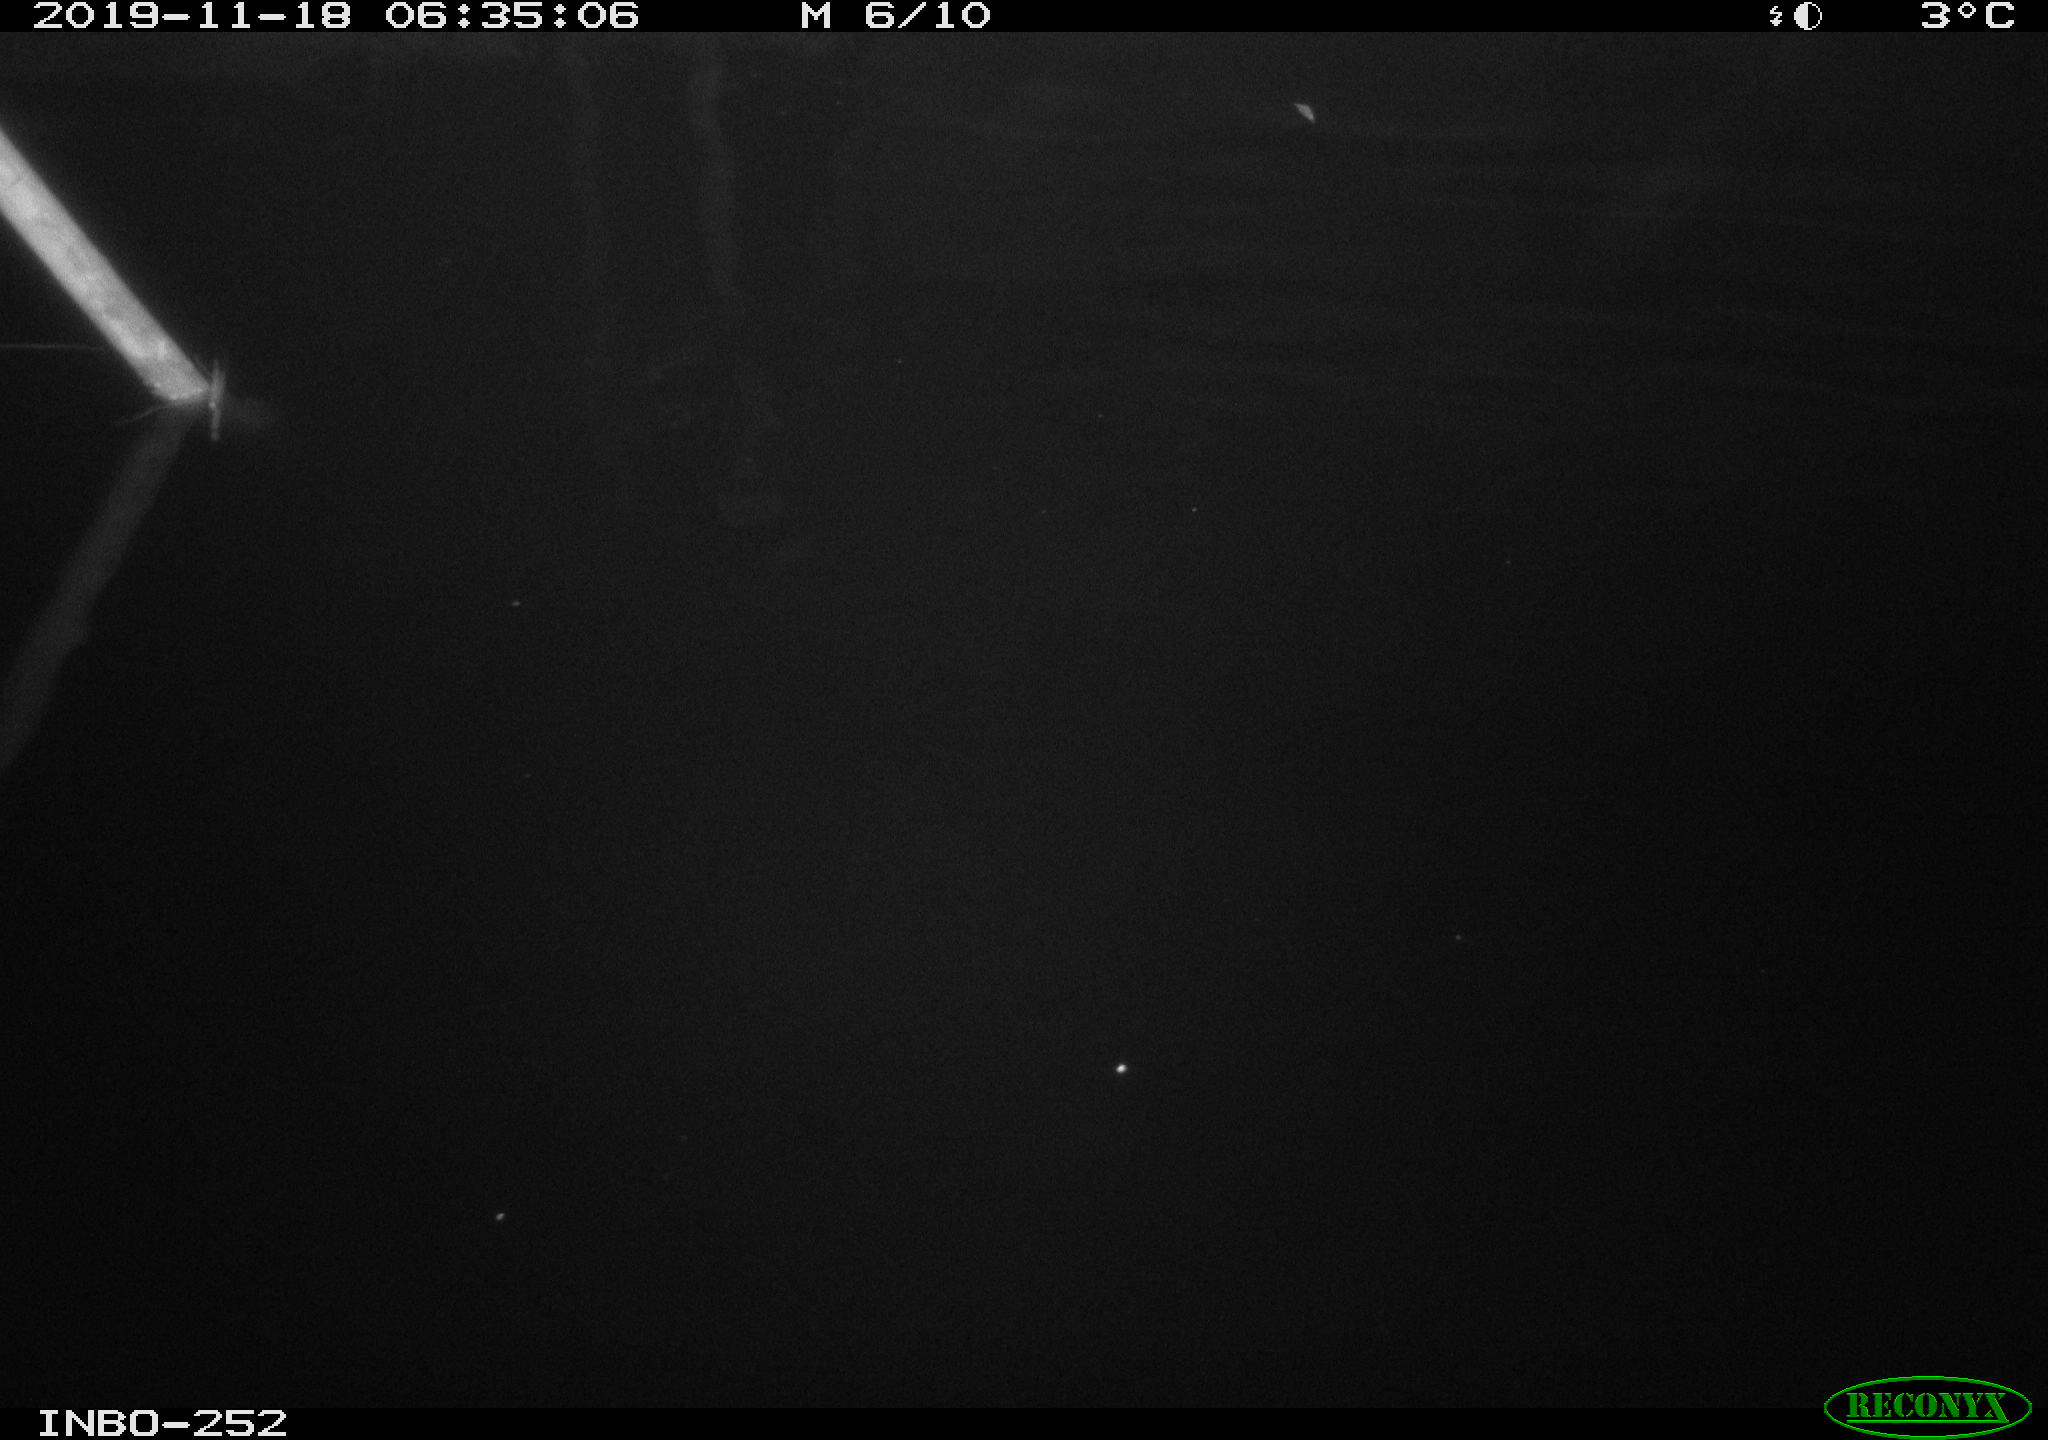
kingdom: Animalia
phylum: Chordata
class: Aves
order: Anseriformes
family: Anatidae
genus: Anas
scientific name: Anas platyrhynchos
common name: Mallard
